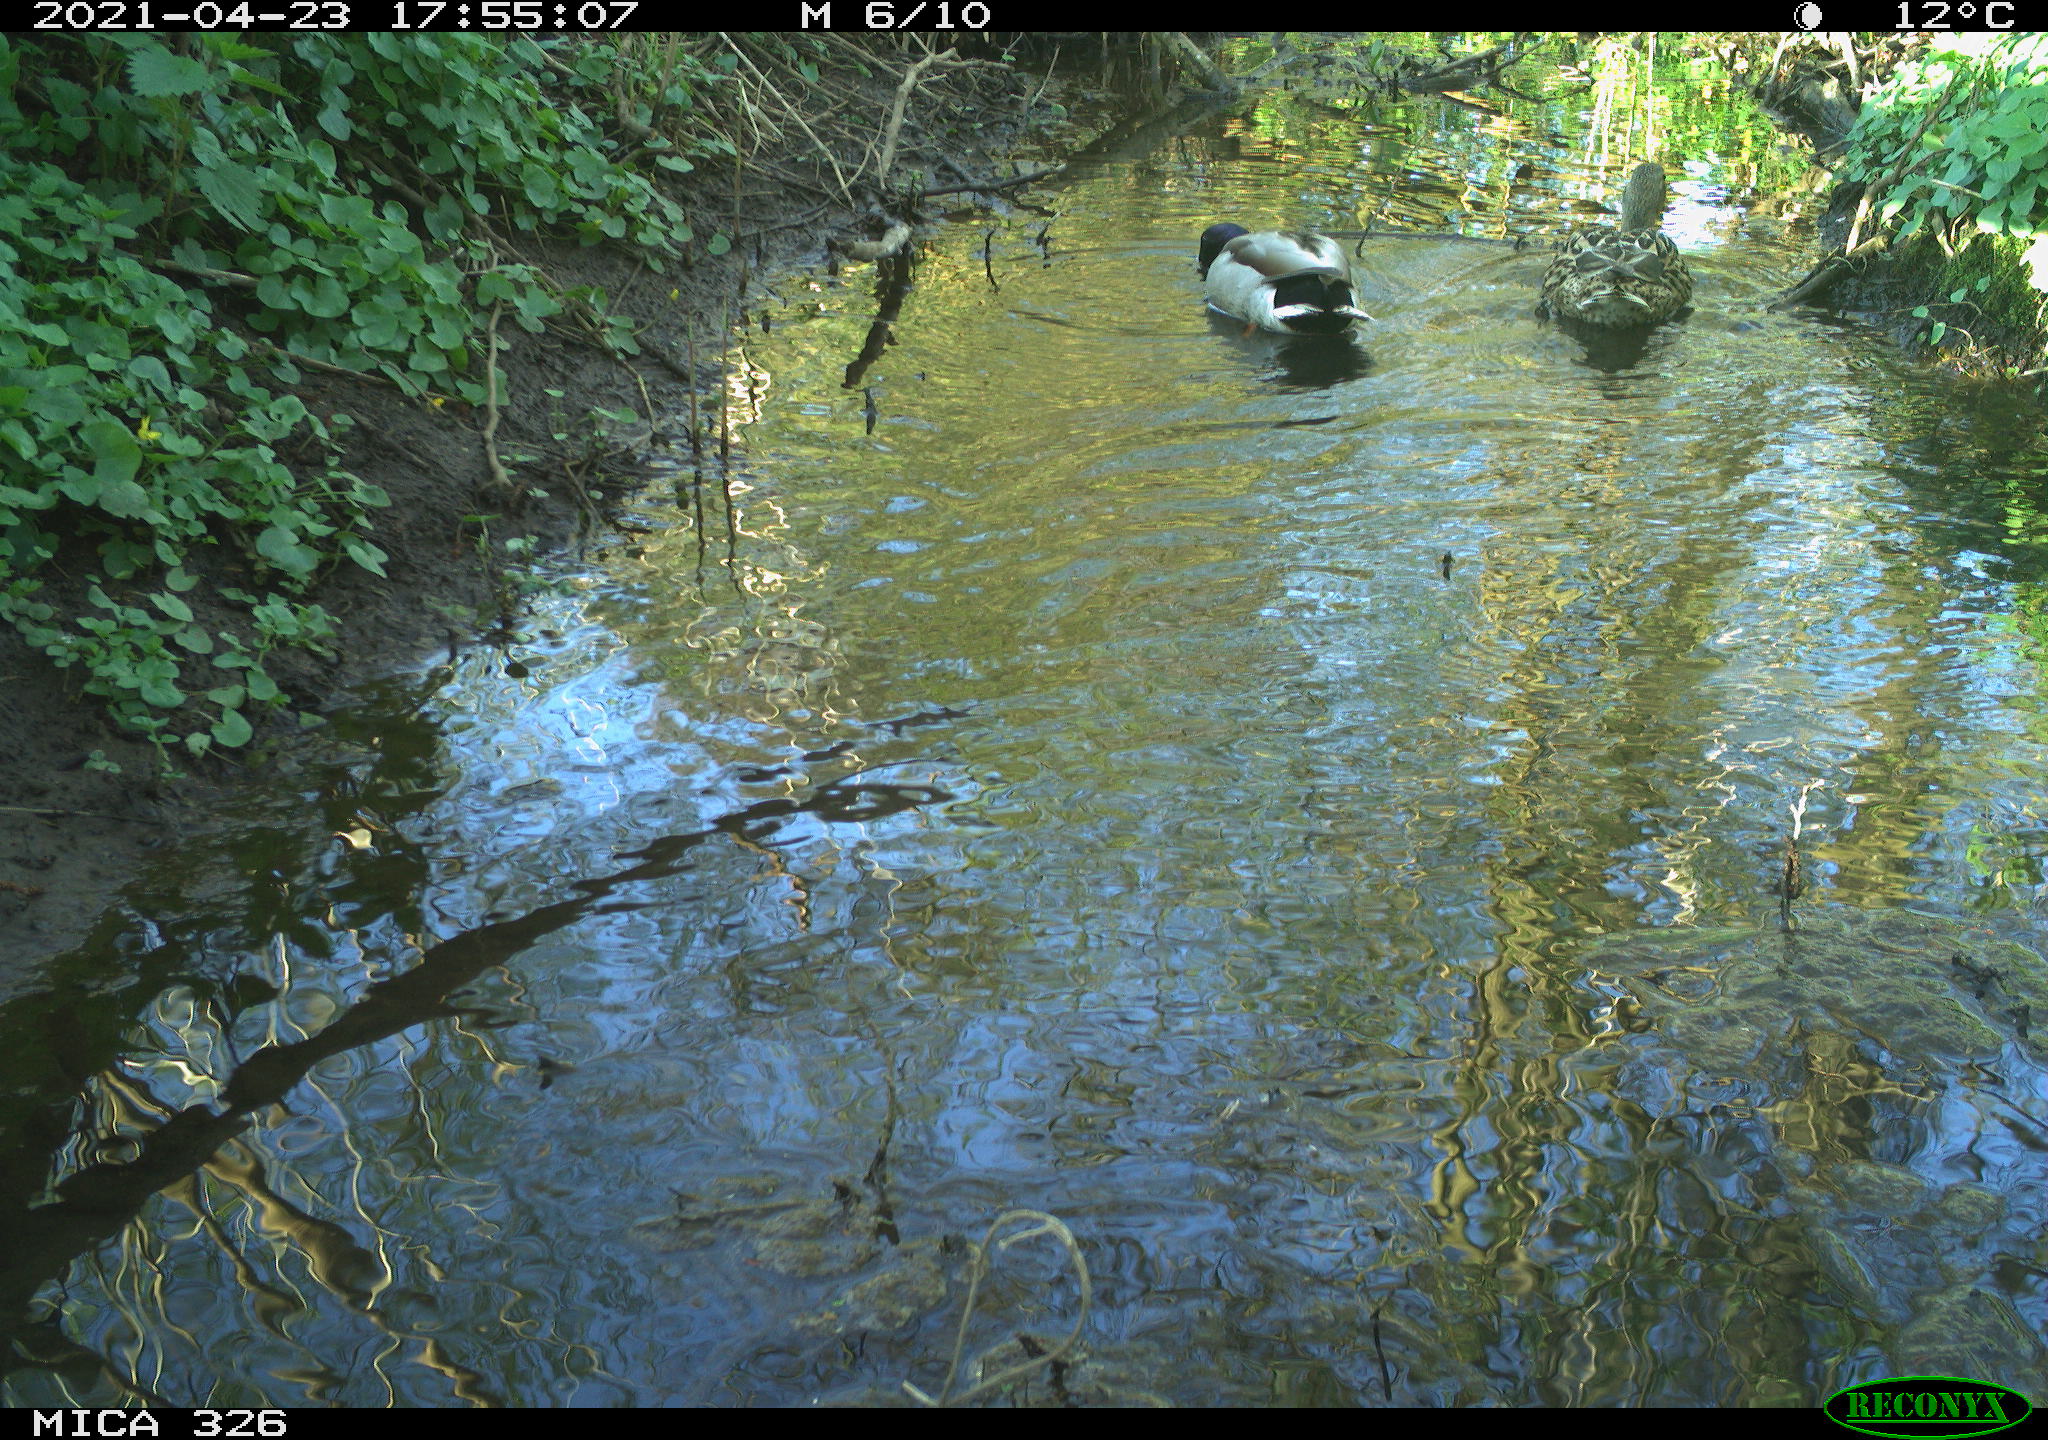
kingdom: Animalia
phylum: Chordata
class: Aves
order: Anseriformes
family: Anatidae
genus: Anas
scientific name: Anas platyrhynchos
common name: Mallard
